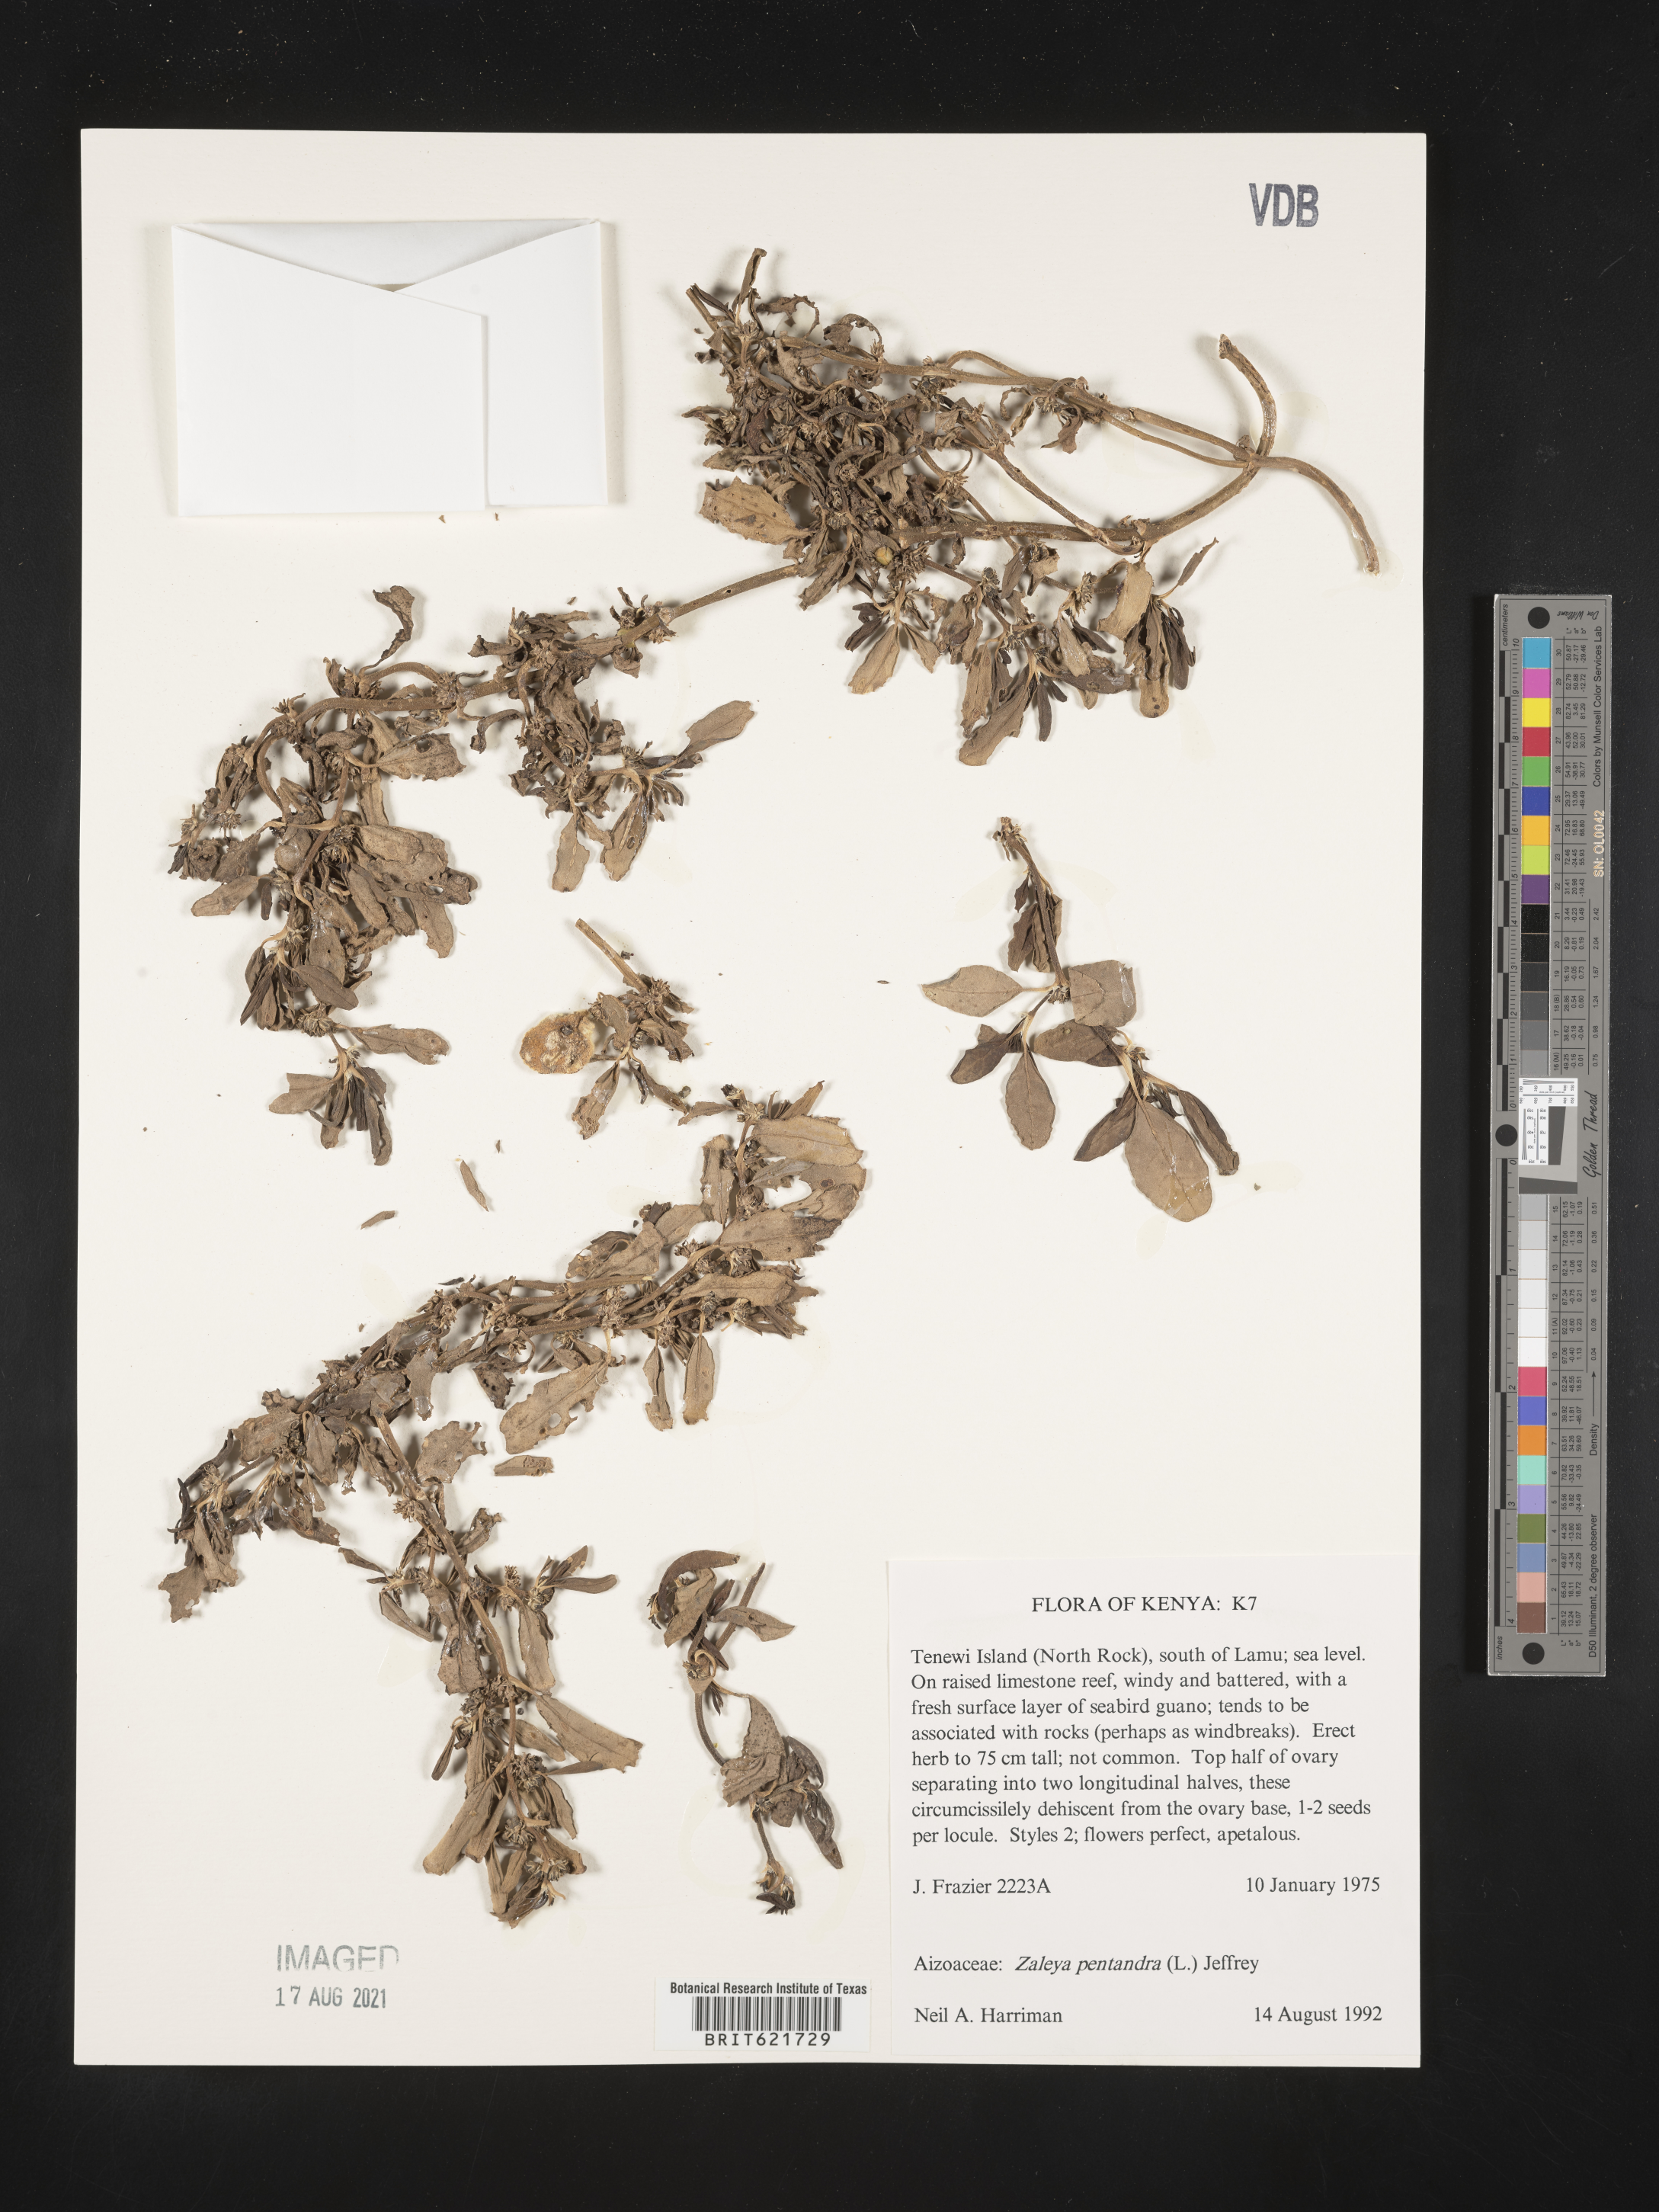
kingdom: Plantae
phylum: Tracheophyta
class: Magnoliopsida
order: Caryophyllales
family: Aizoaceae
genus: Zaleya
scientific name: Zaleya pentandra
